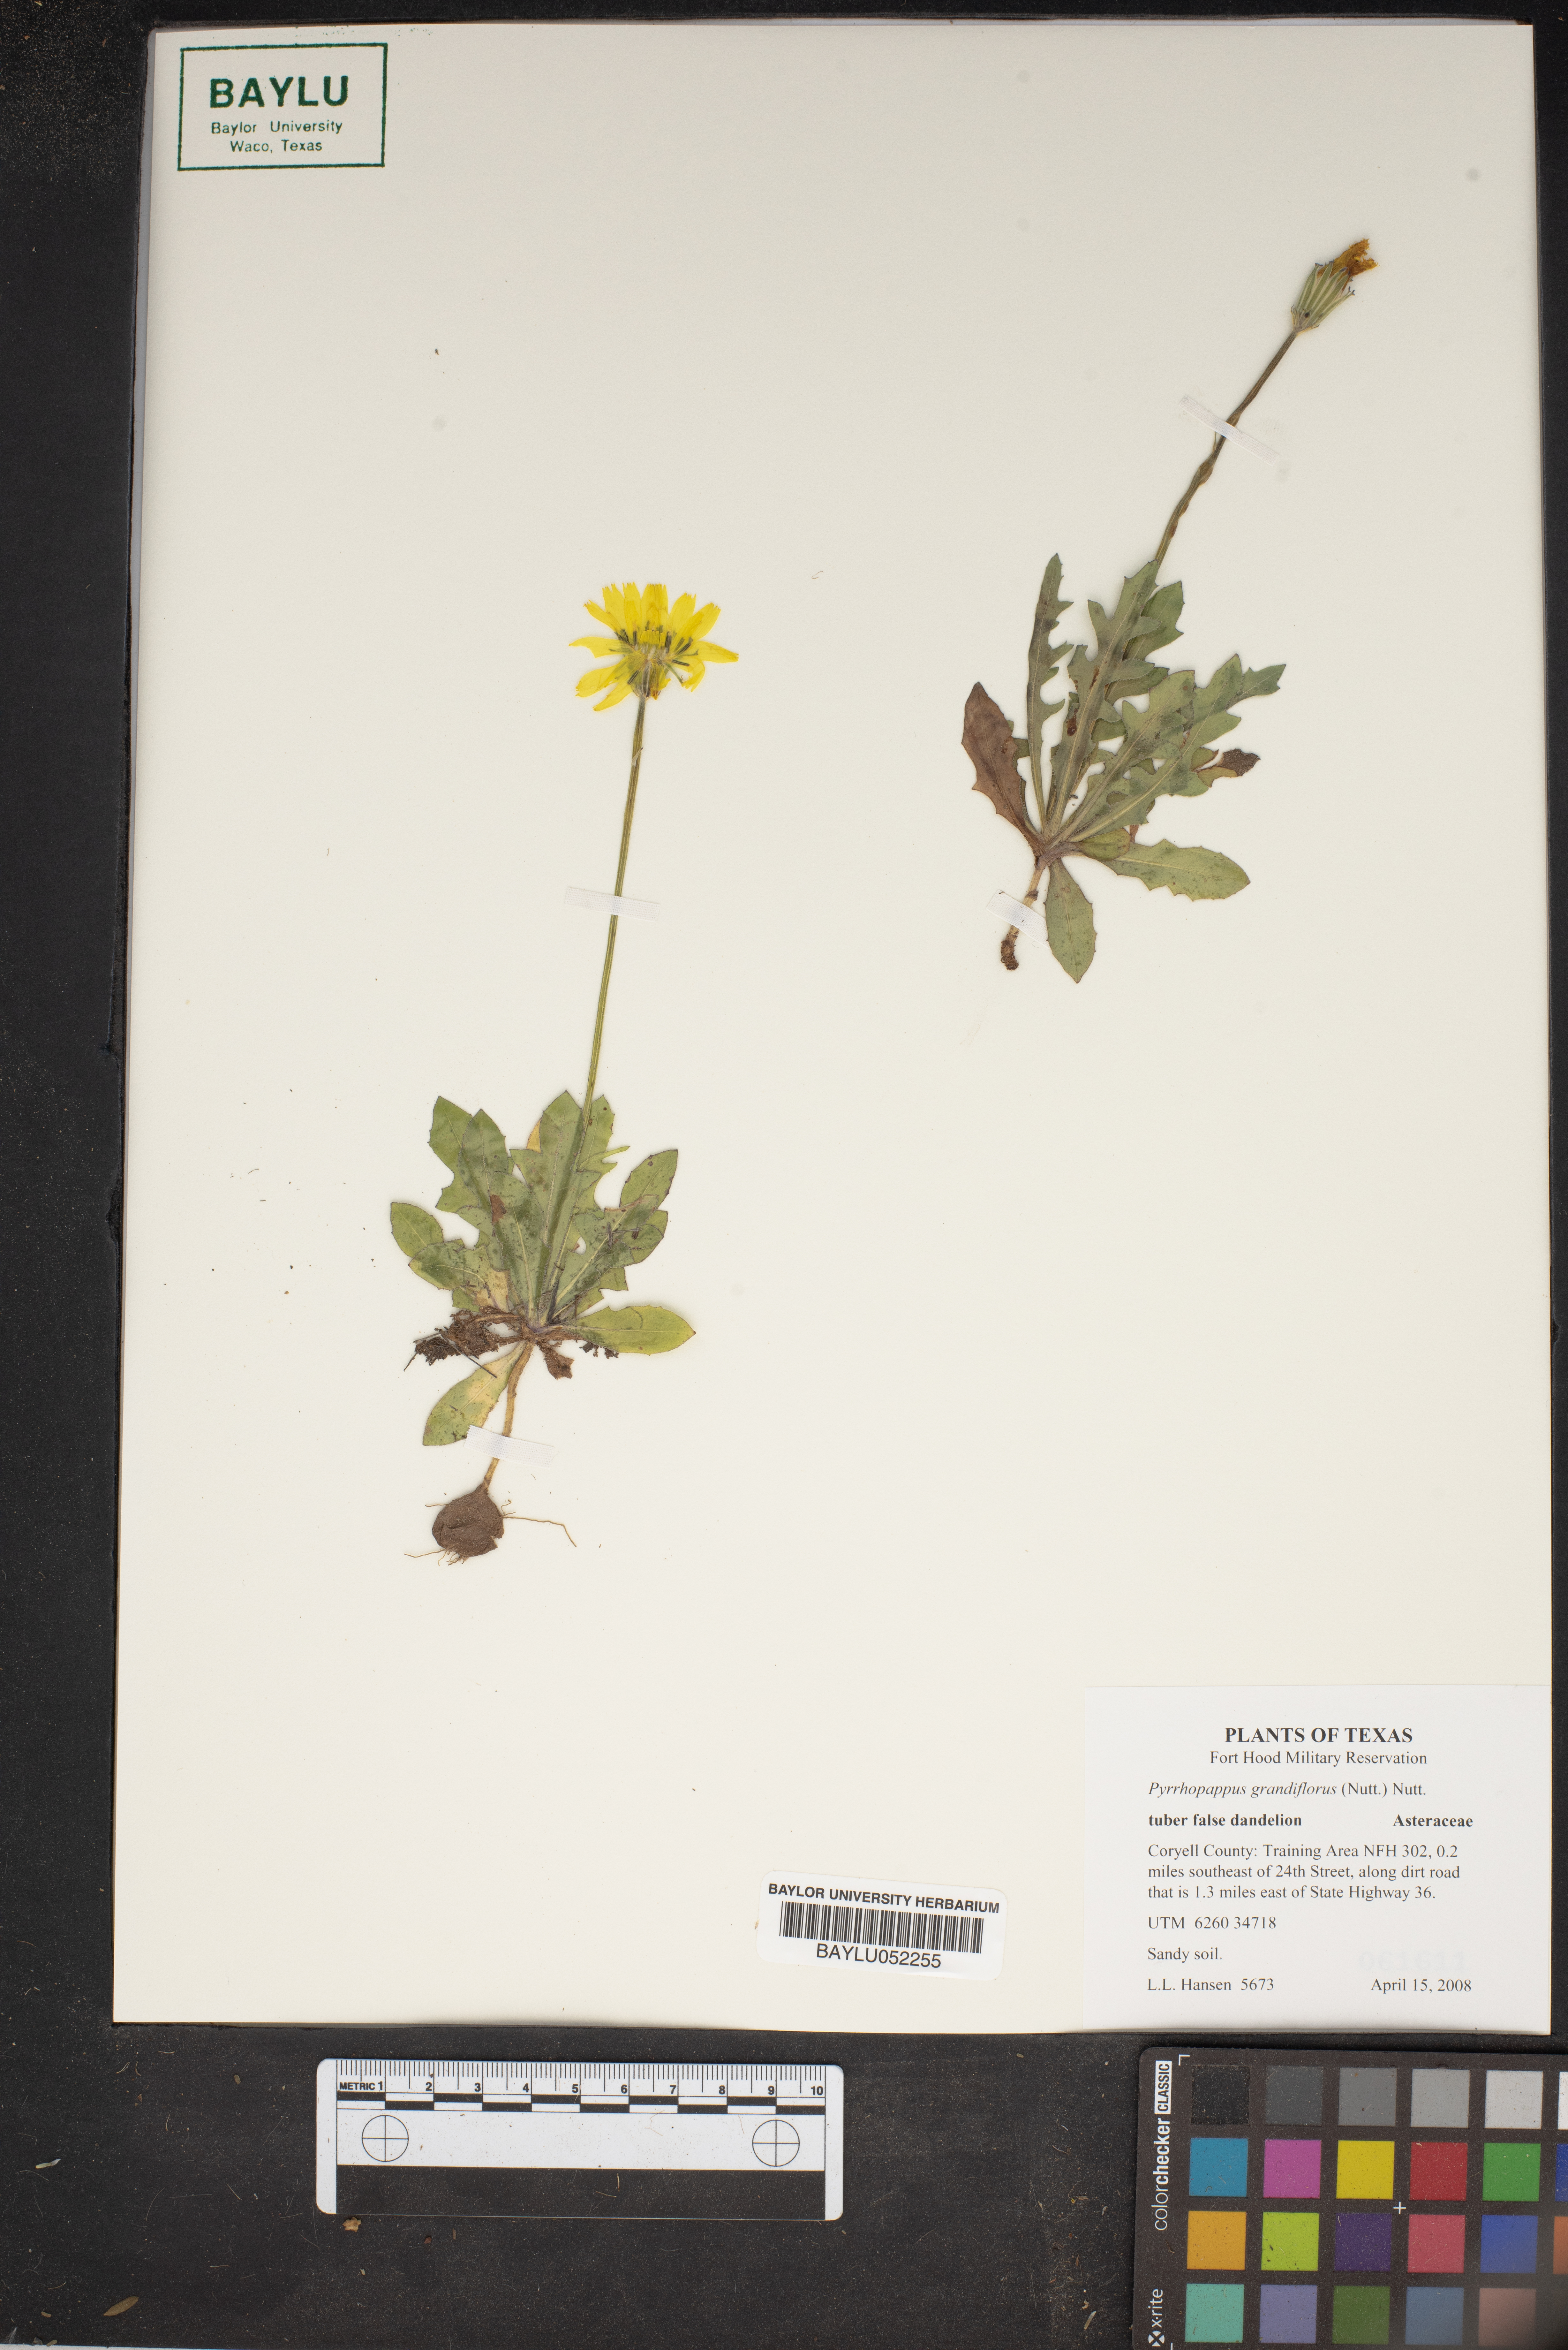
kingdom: Plantae
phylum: Tracheophyta
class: Magnoliopsida
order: Asterales
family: Asteraceae
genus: Pyrrhopappus
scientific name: Pyrrhopappus grandiflorus
